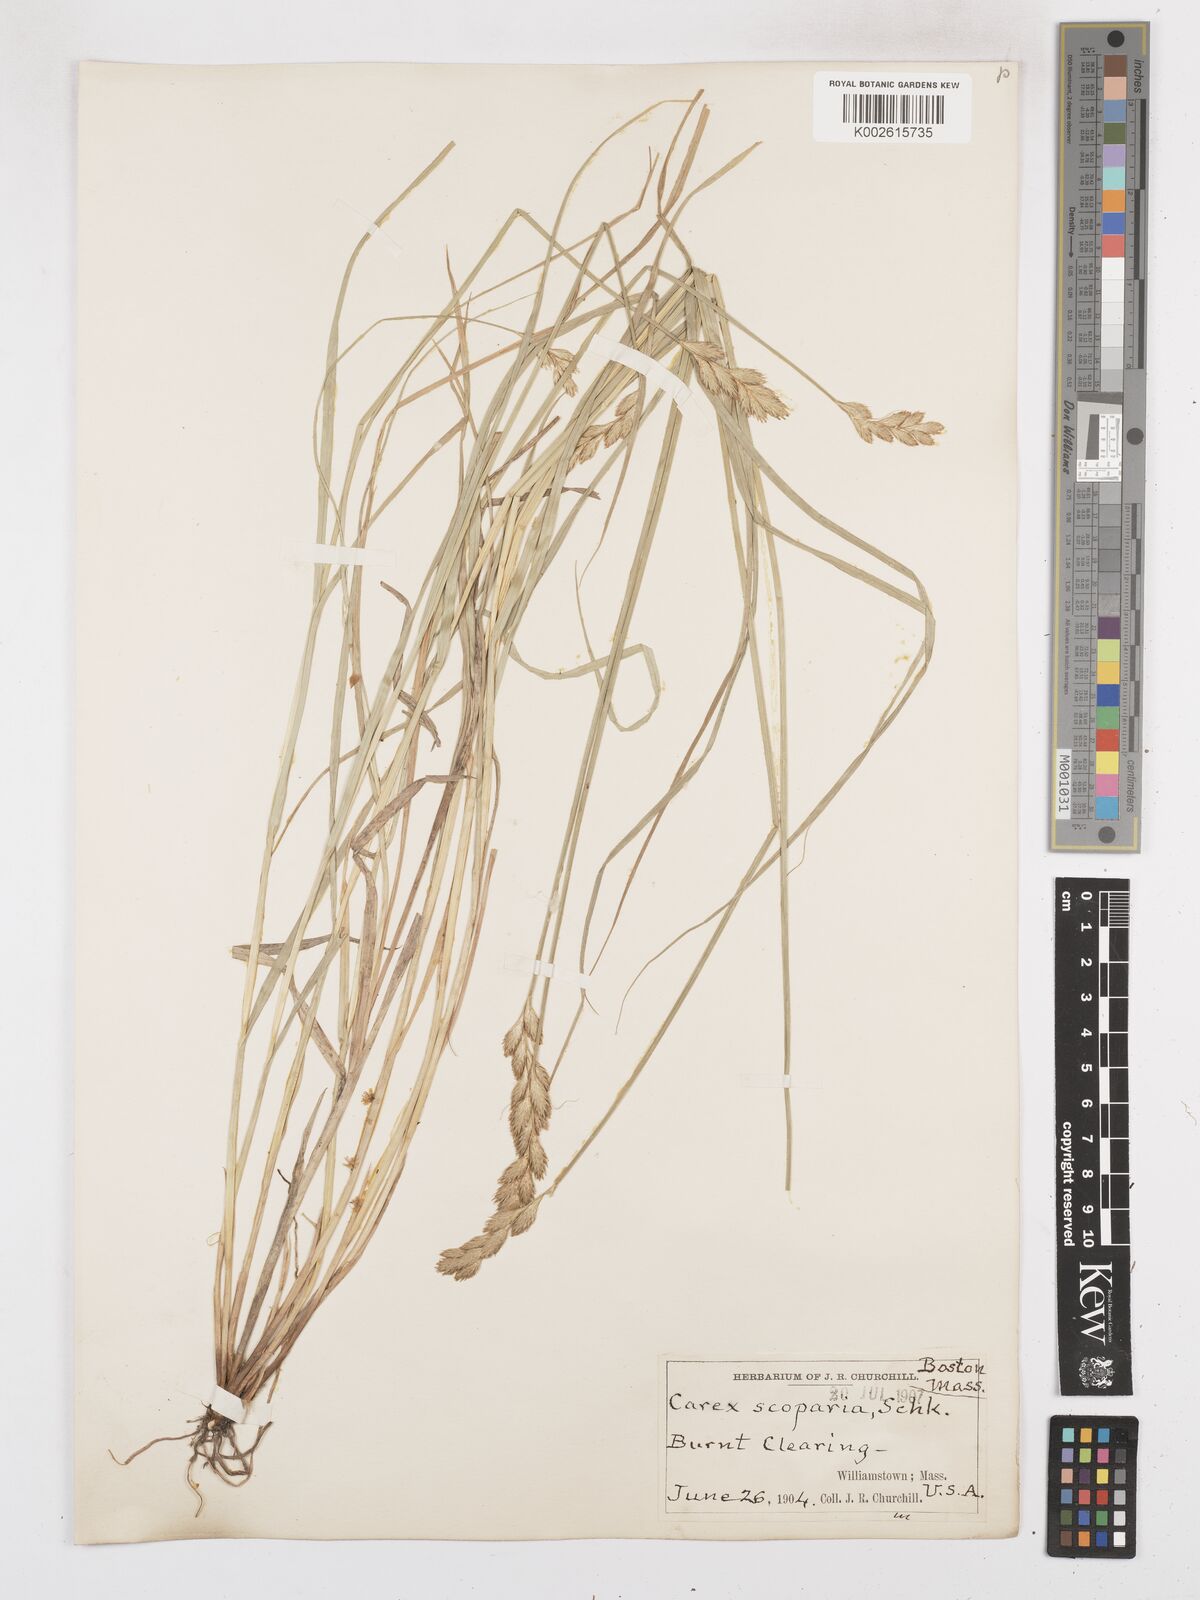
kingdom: Plantae
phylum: Tracheophyta
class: Liliopsida
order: Poales
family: Cyperaceae
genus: Carex
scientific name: Carex leporina
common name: Oval sedge
